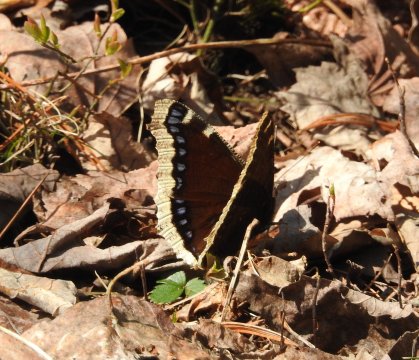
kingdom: Animalia
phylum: Arthropoda
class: Insecta
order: Lepidoptera
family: Nymphalidae
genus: Nymphalis
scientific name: Nymphalis antiopa
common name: Mourning Cloak
